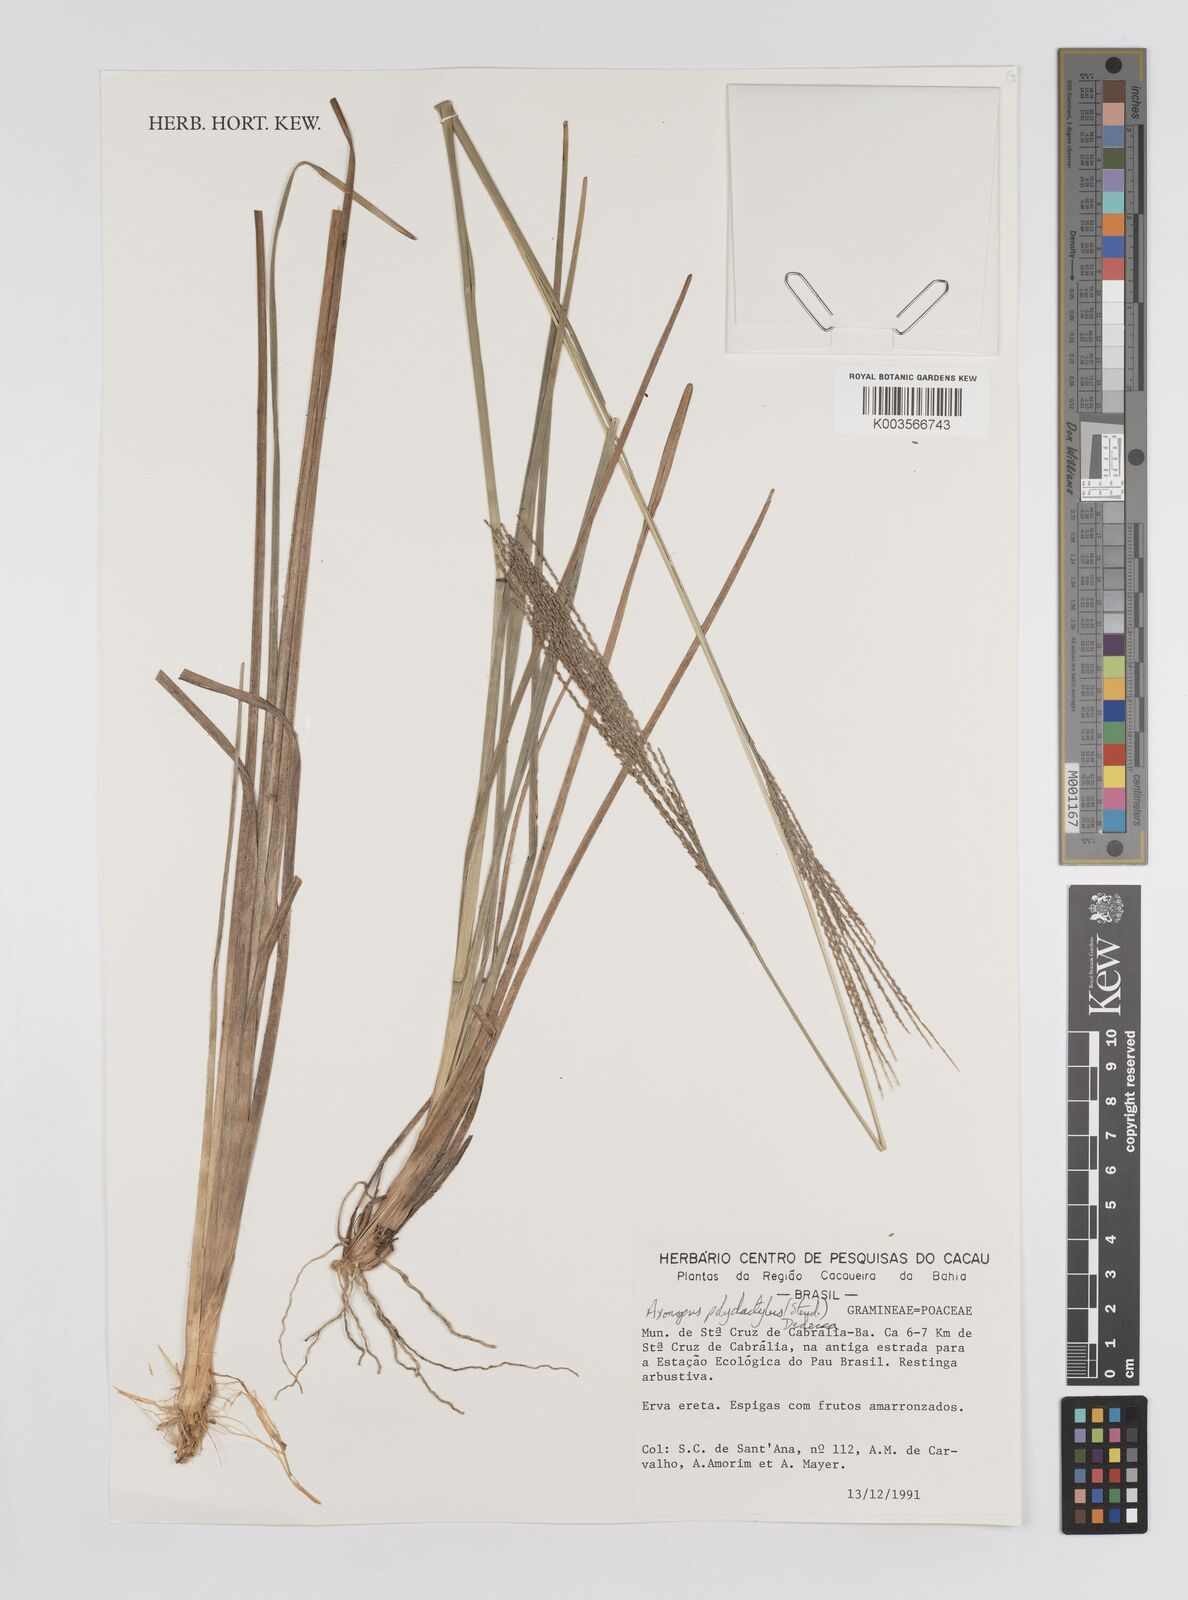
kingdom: Plantae
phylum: Tracheophyta
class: Liliopsida
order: Poales
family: Poaceae
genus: Axonopus
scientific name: Axonopus polydactylus
